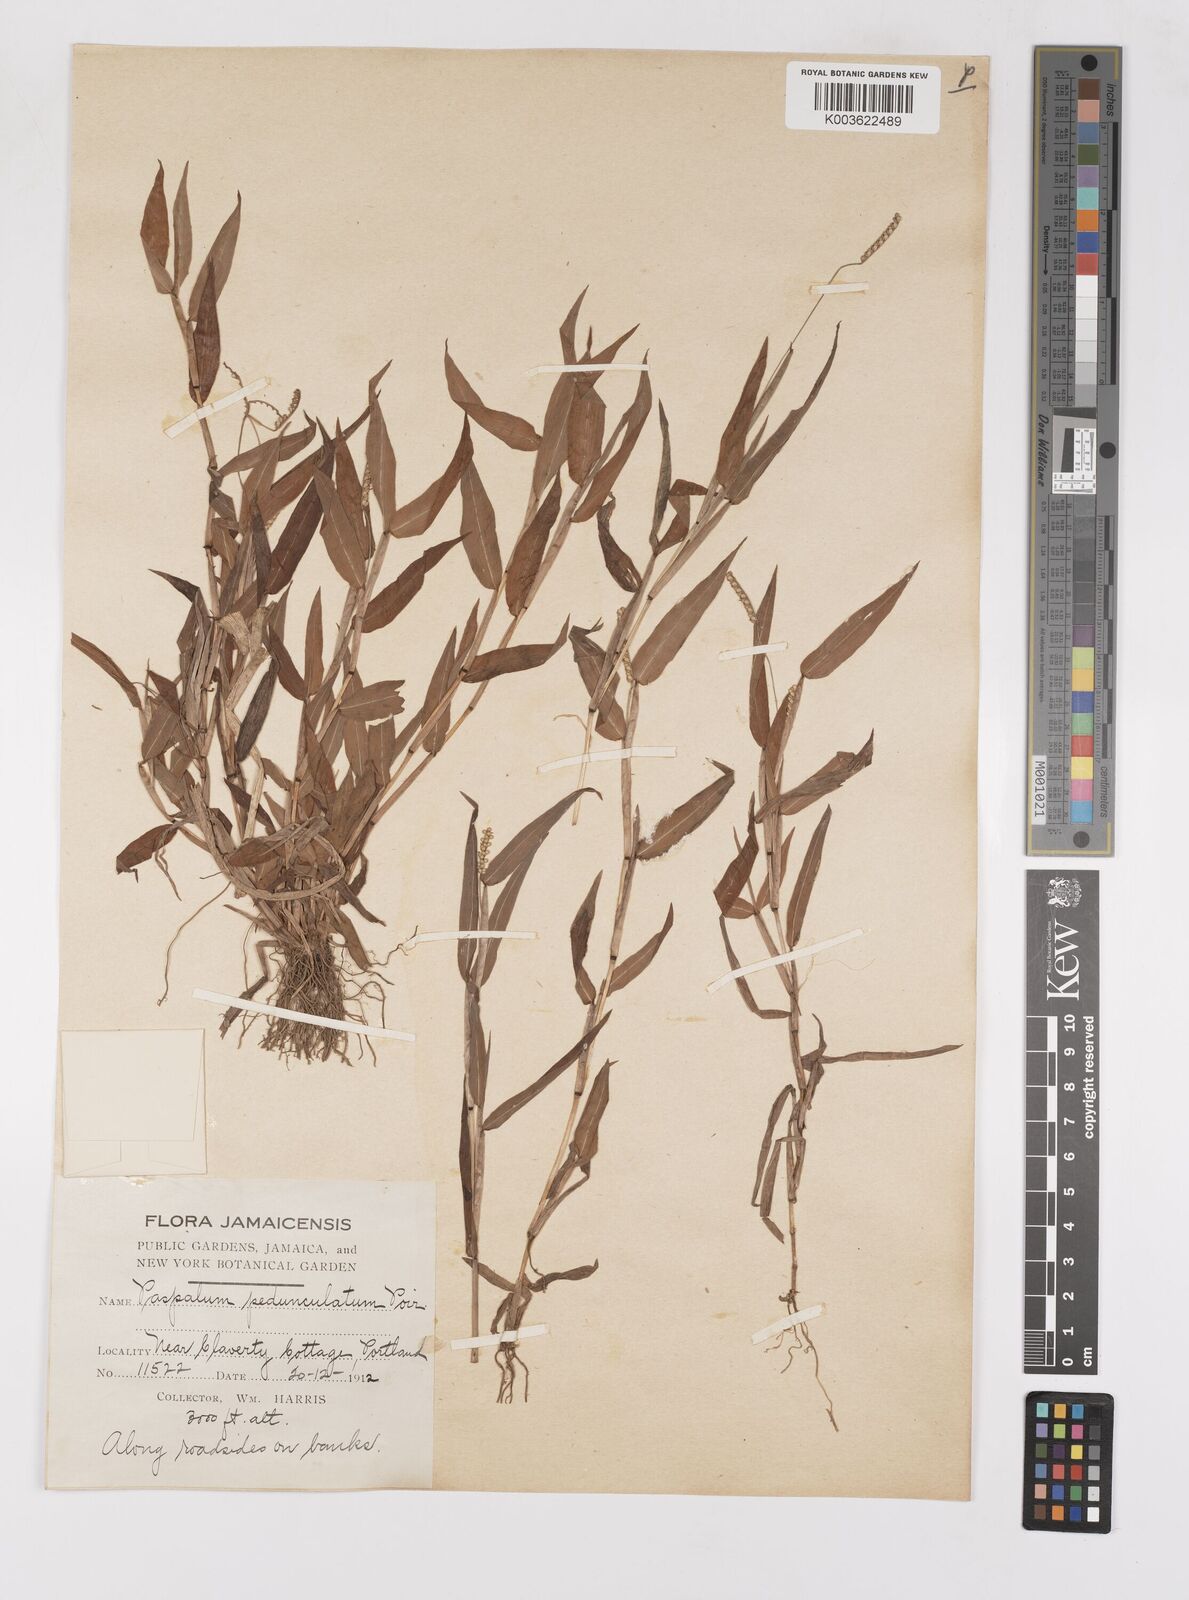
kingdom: Plantae
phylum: Tracheophyta
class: Liliopsida
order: Poales
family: Poaceae
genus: Paspalum
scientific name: Paspalum decumbens
